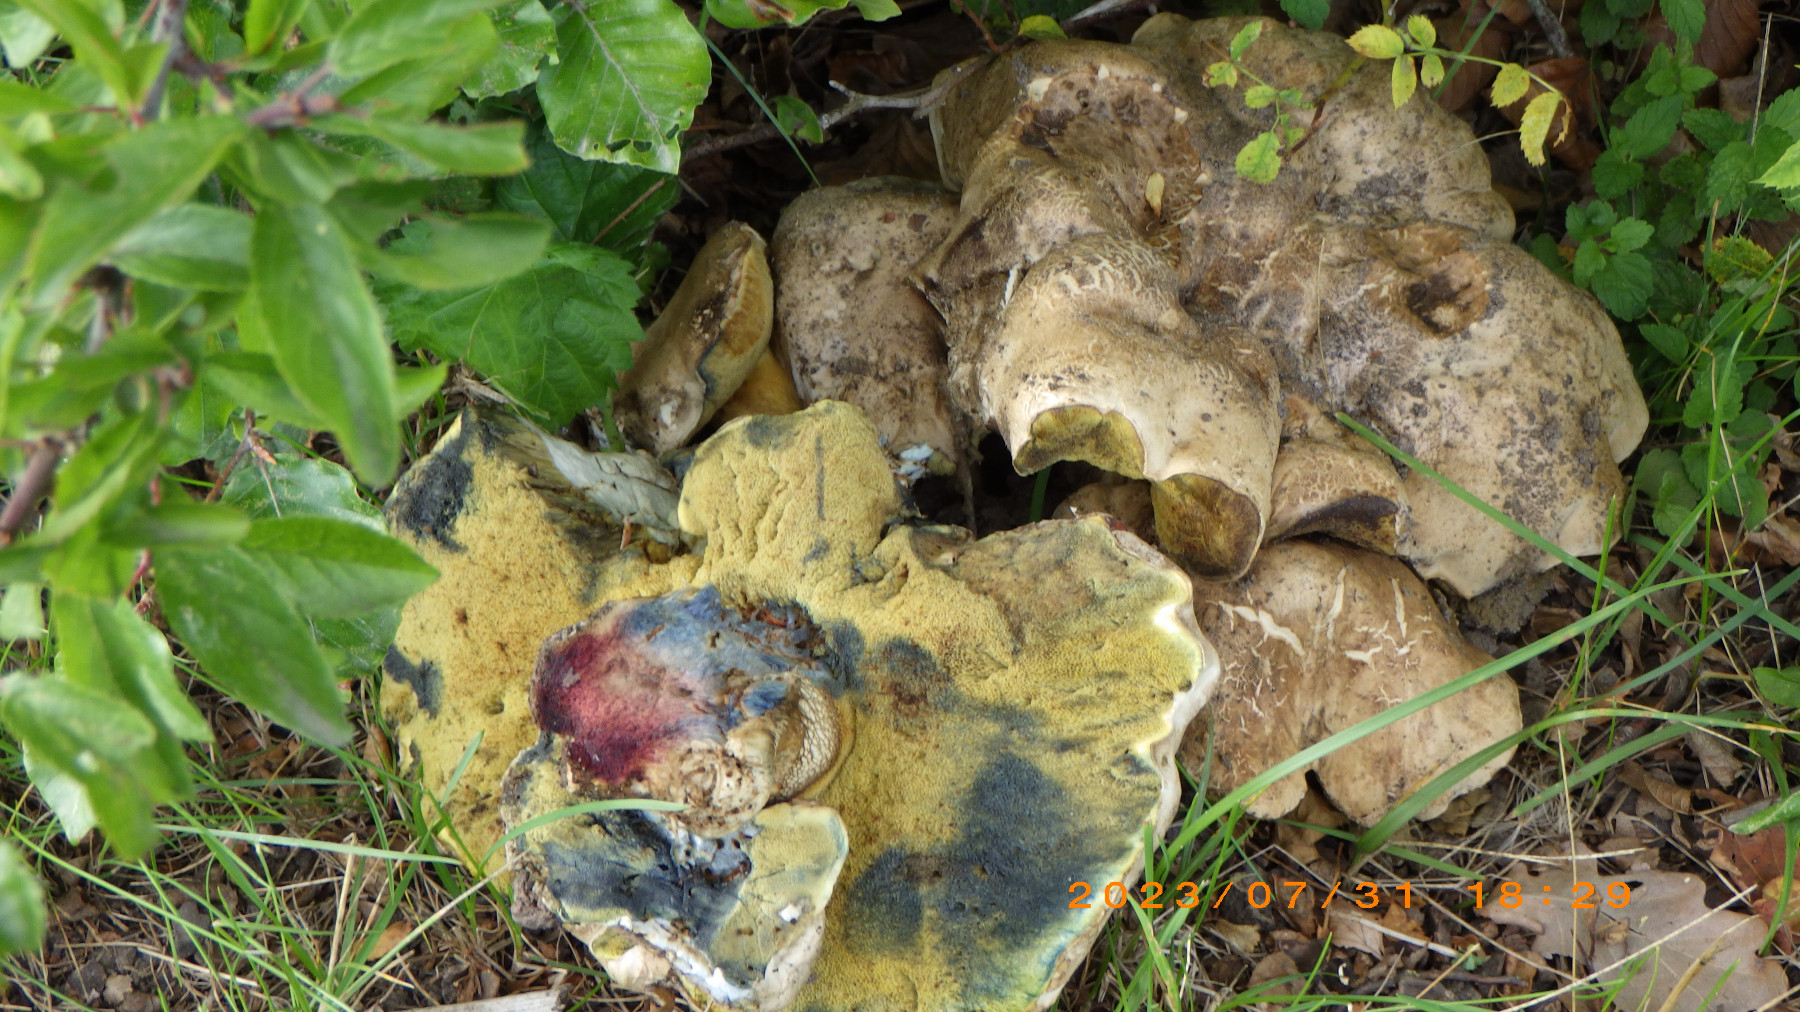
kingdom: Fungi
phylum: Basidiomycota
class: Agaricomycetes
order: Boletales
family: Boletaceae
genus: Caloboletus
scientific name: Caloboletus radicans
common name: rod-rørhat
